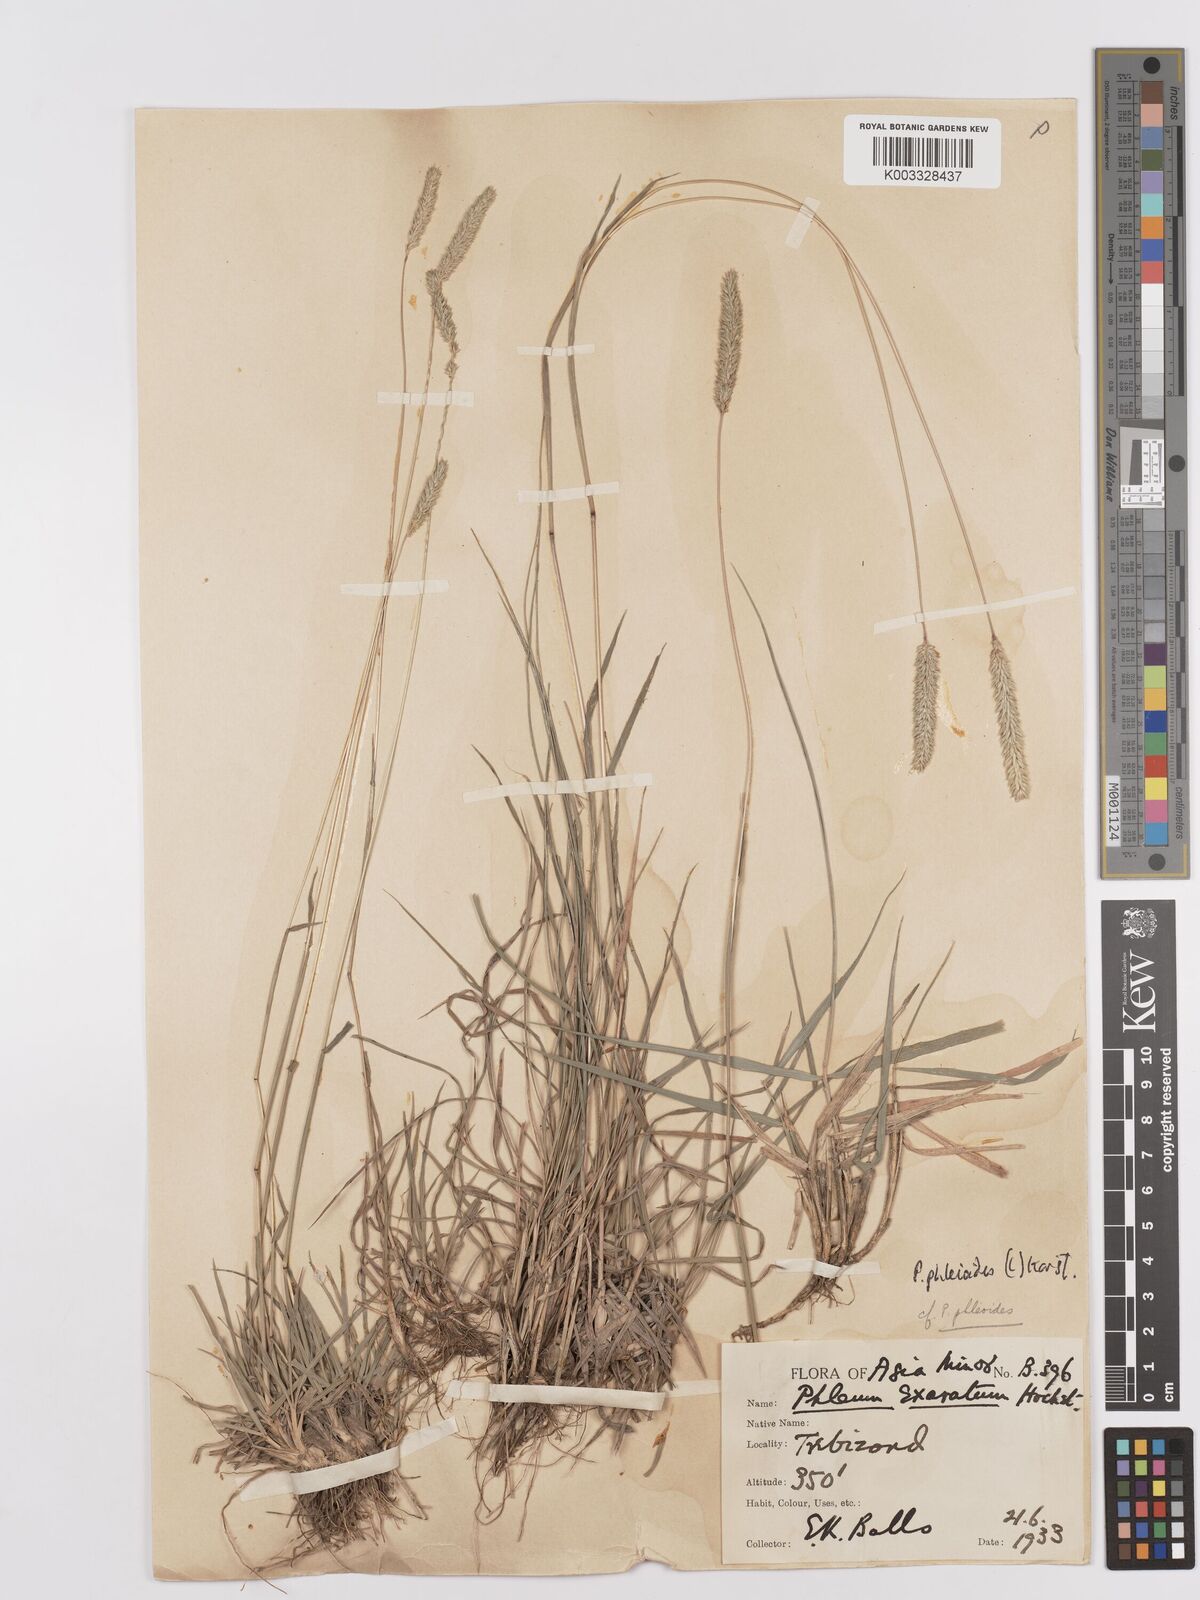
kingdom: Plantae
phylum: Tracheophyta
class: Liliopsida
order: Poales
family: Poaceae
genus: Phleum
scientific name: Phleum phleoides
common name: Purple-stem cat's-tail
